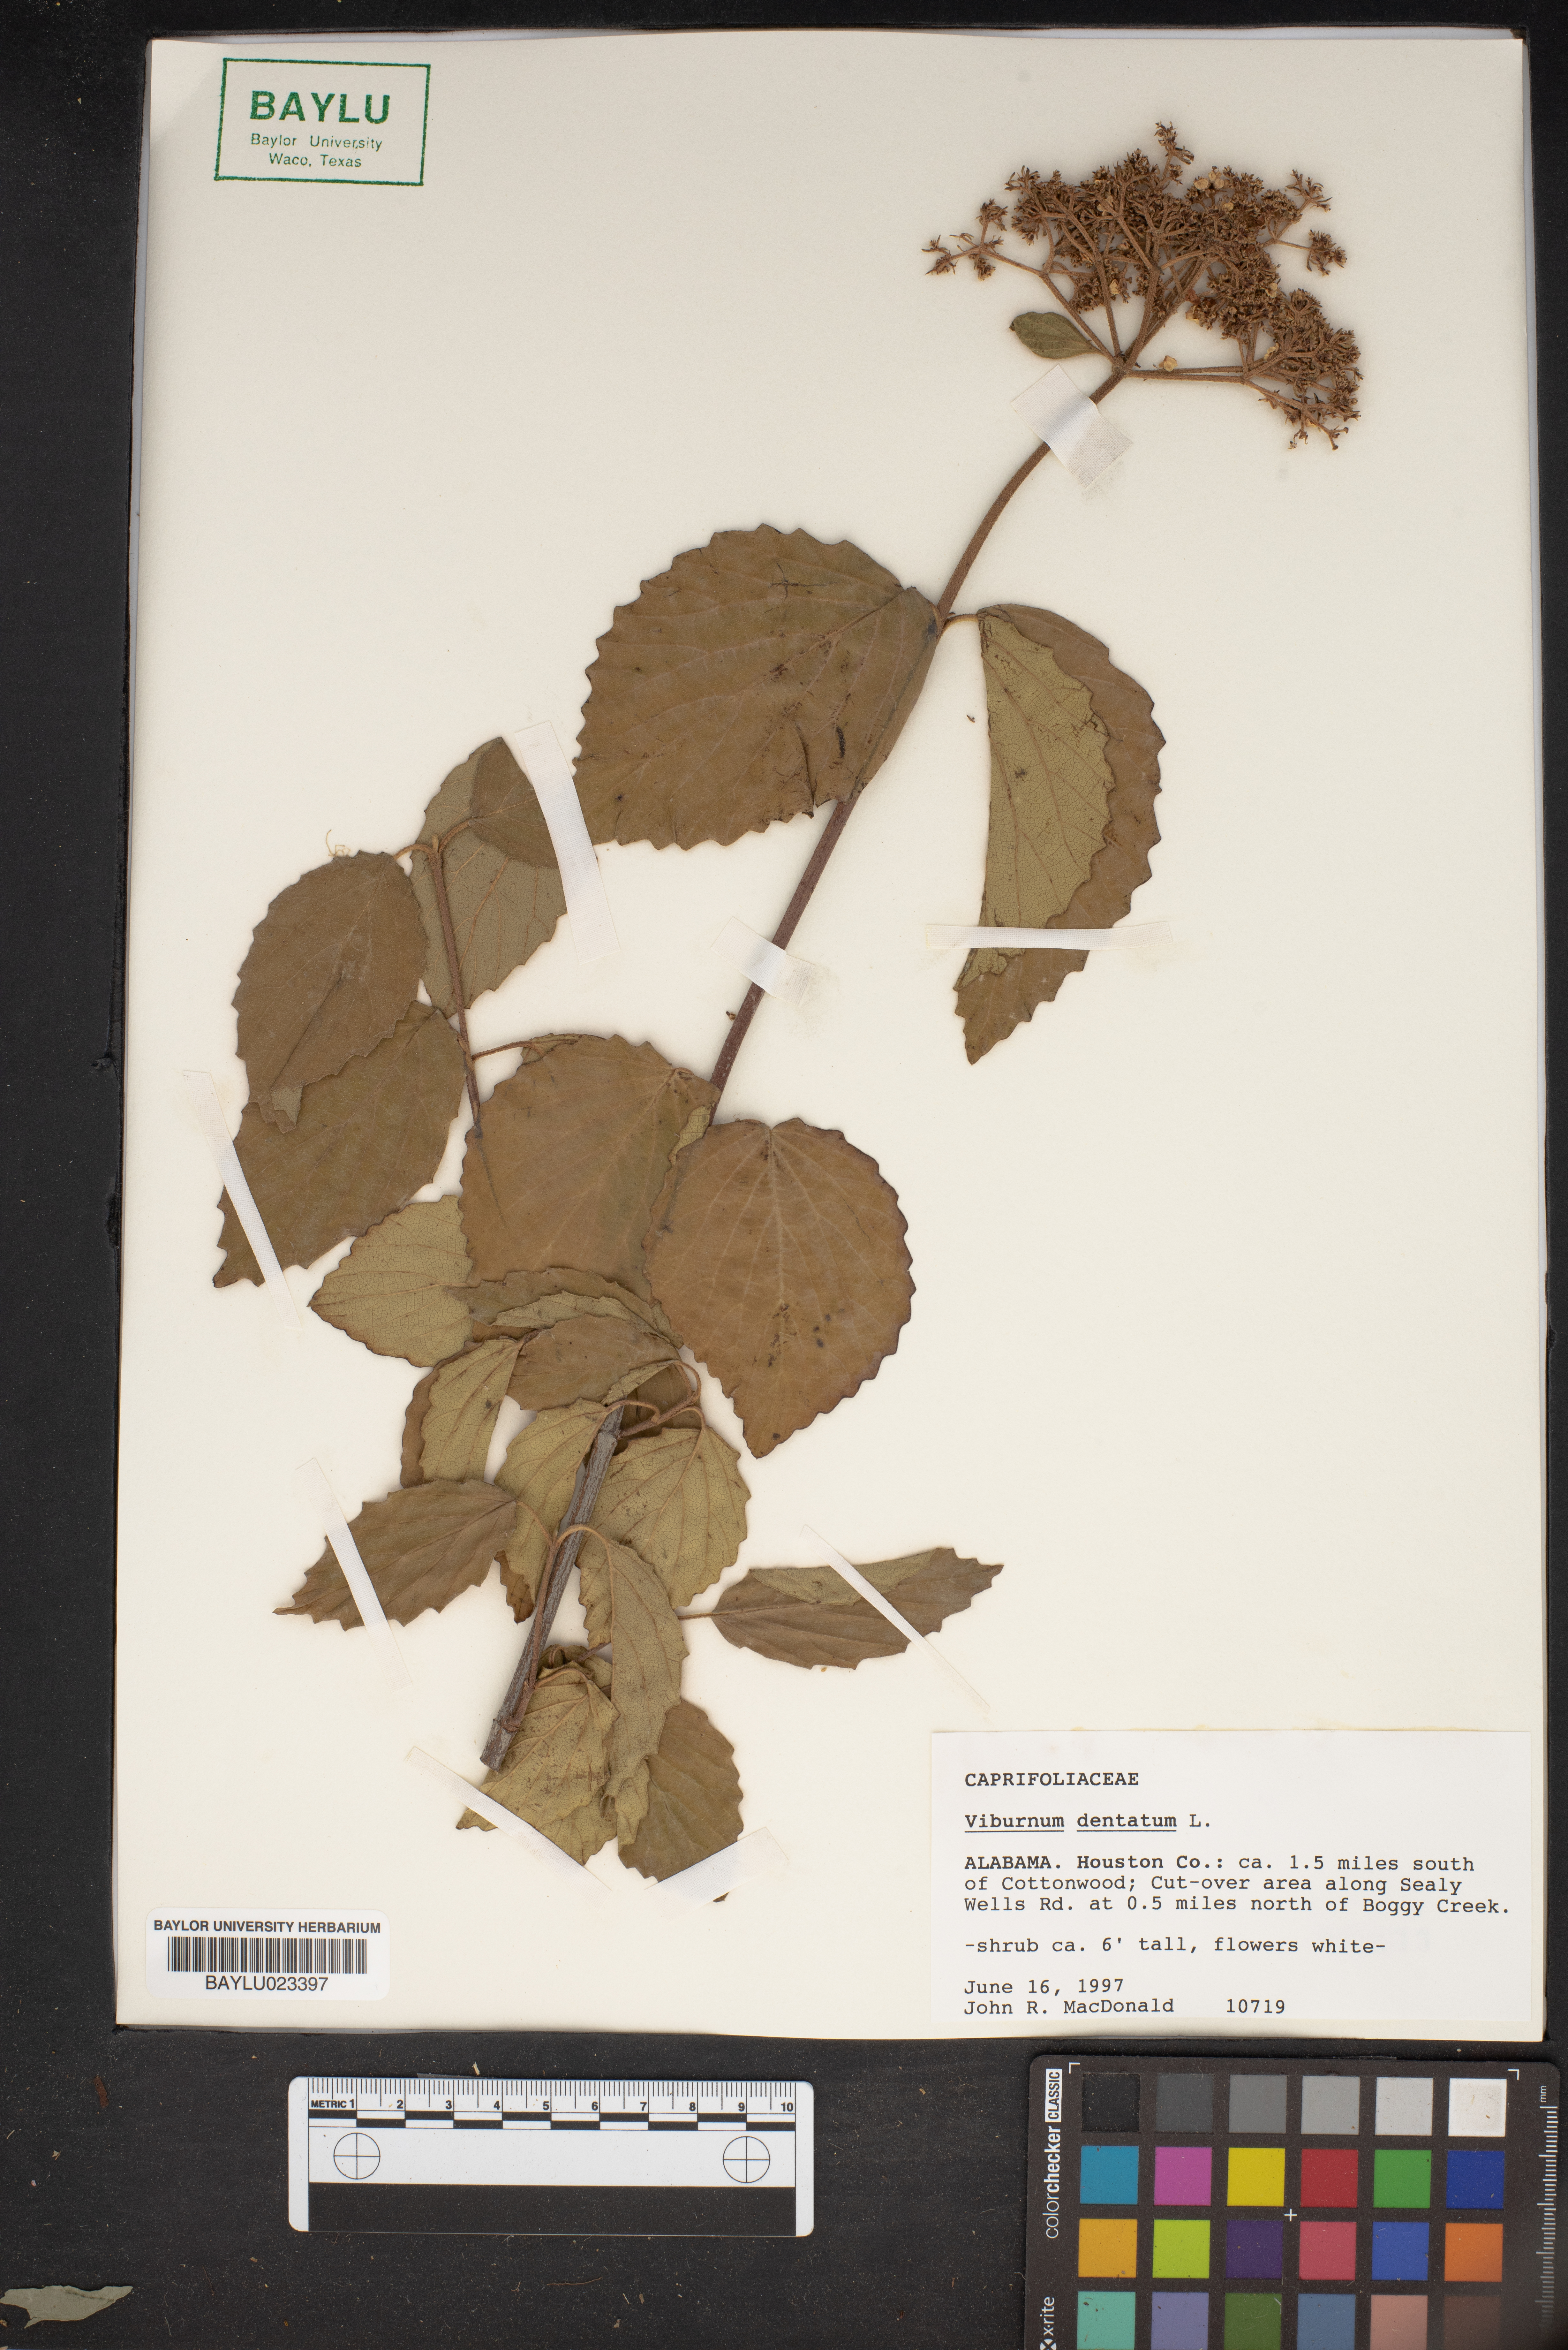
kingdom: Plantae
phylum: Tracheophyta
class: Magnoliopsida
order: Dipsacales
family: Viburnaceae
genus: Viburnum
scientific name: Viburnum dentatum
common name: Arrow-wood
